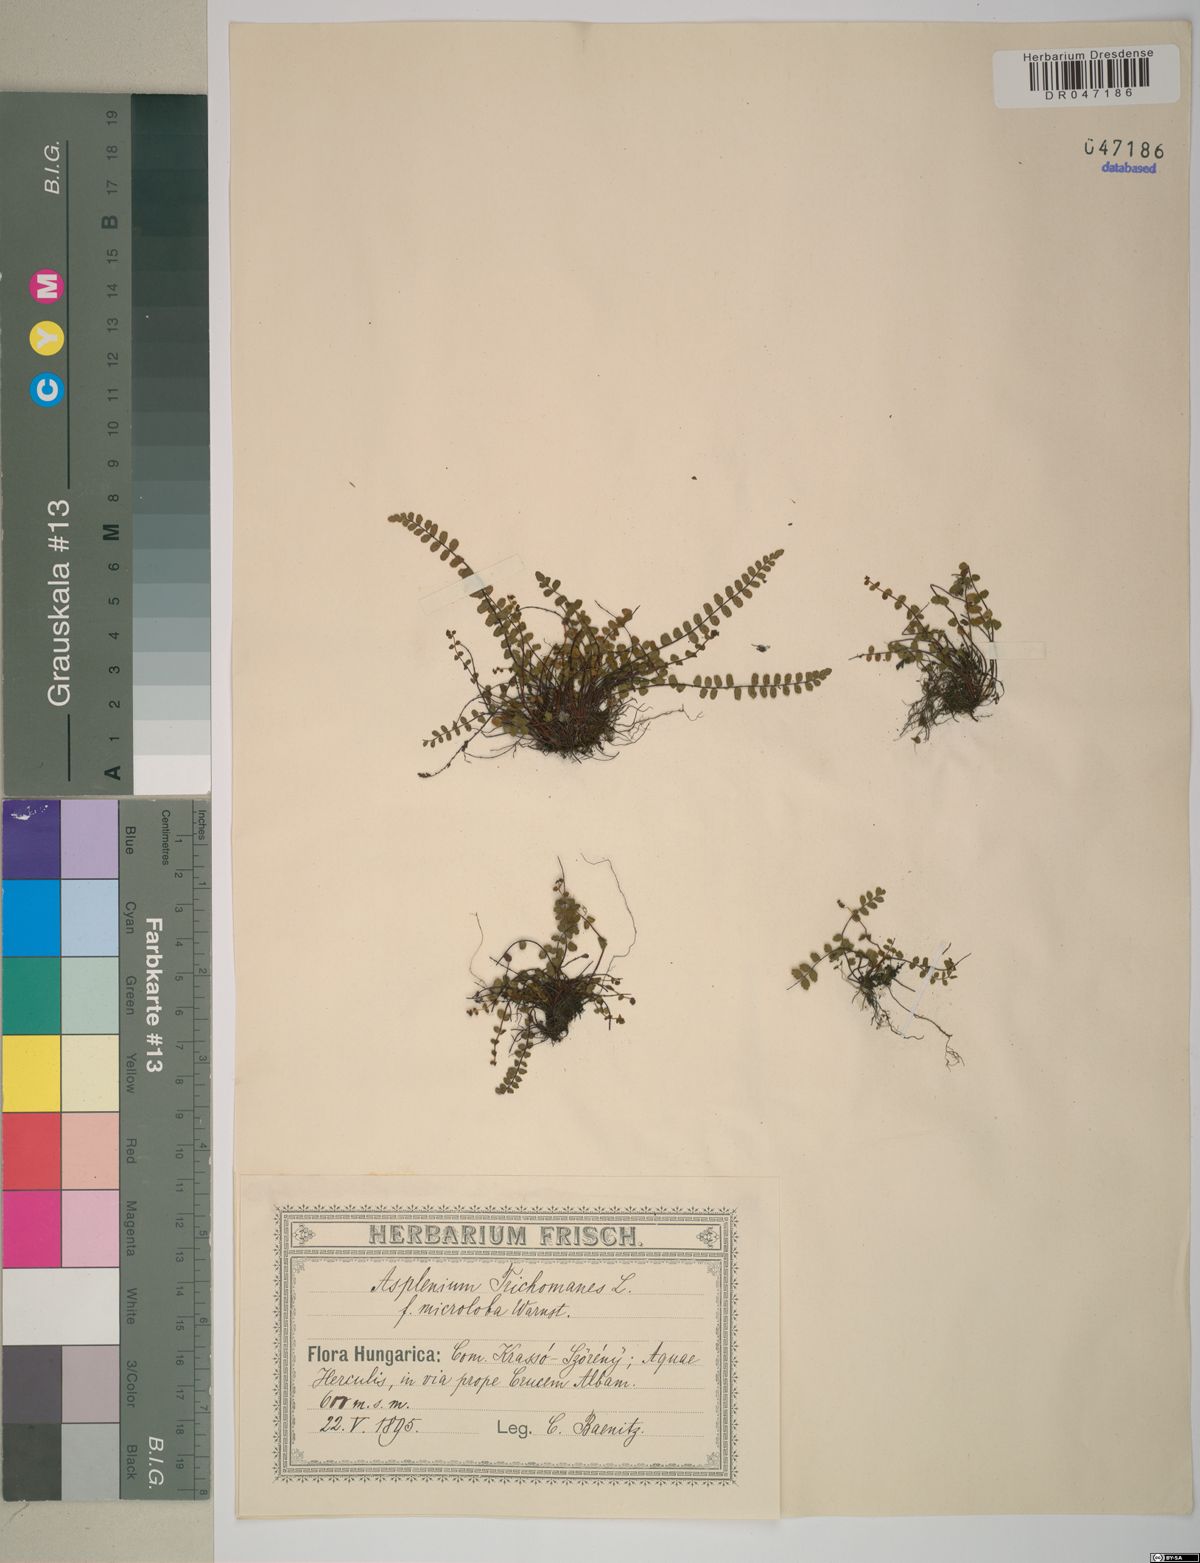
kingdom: Plantae
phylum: Tracheophyta
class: Polypodiopsida
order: Polypodiales
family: Aspleniaceae
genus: Asplenium
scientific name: Asplenium trichomanes
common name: Maidenhair spleenwort
